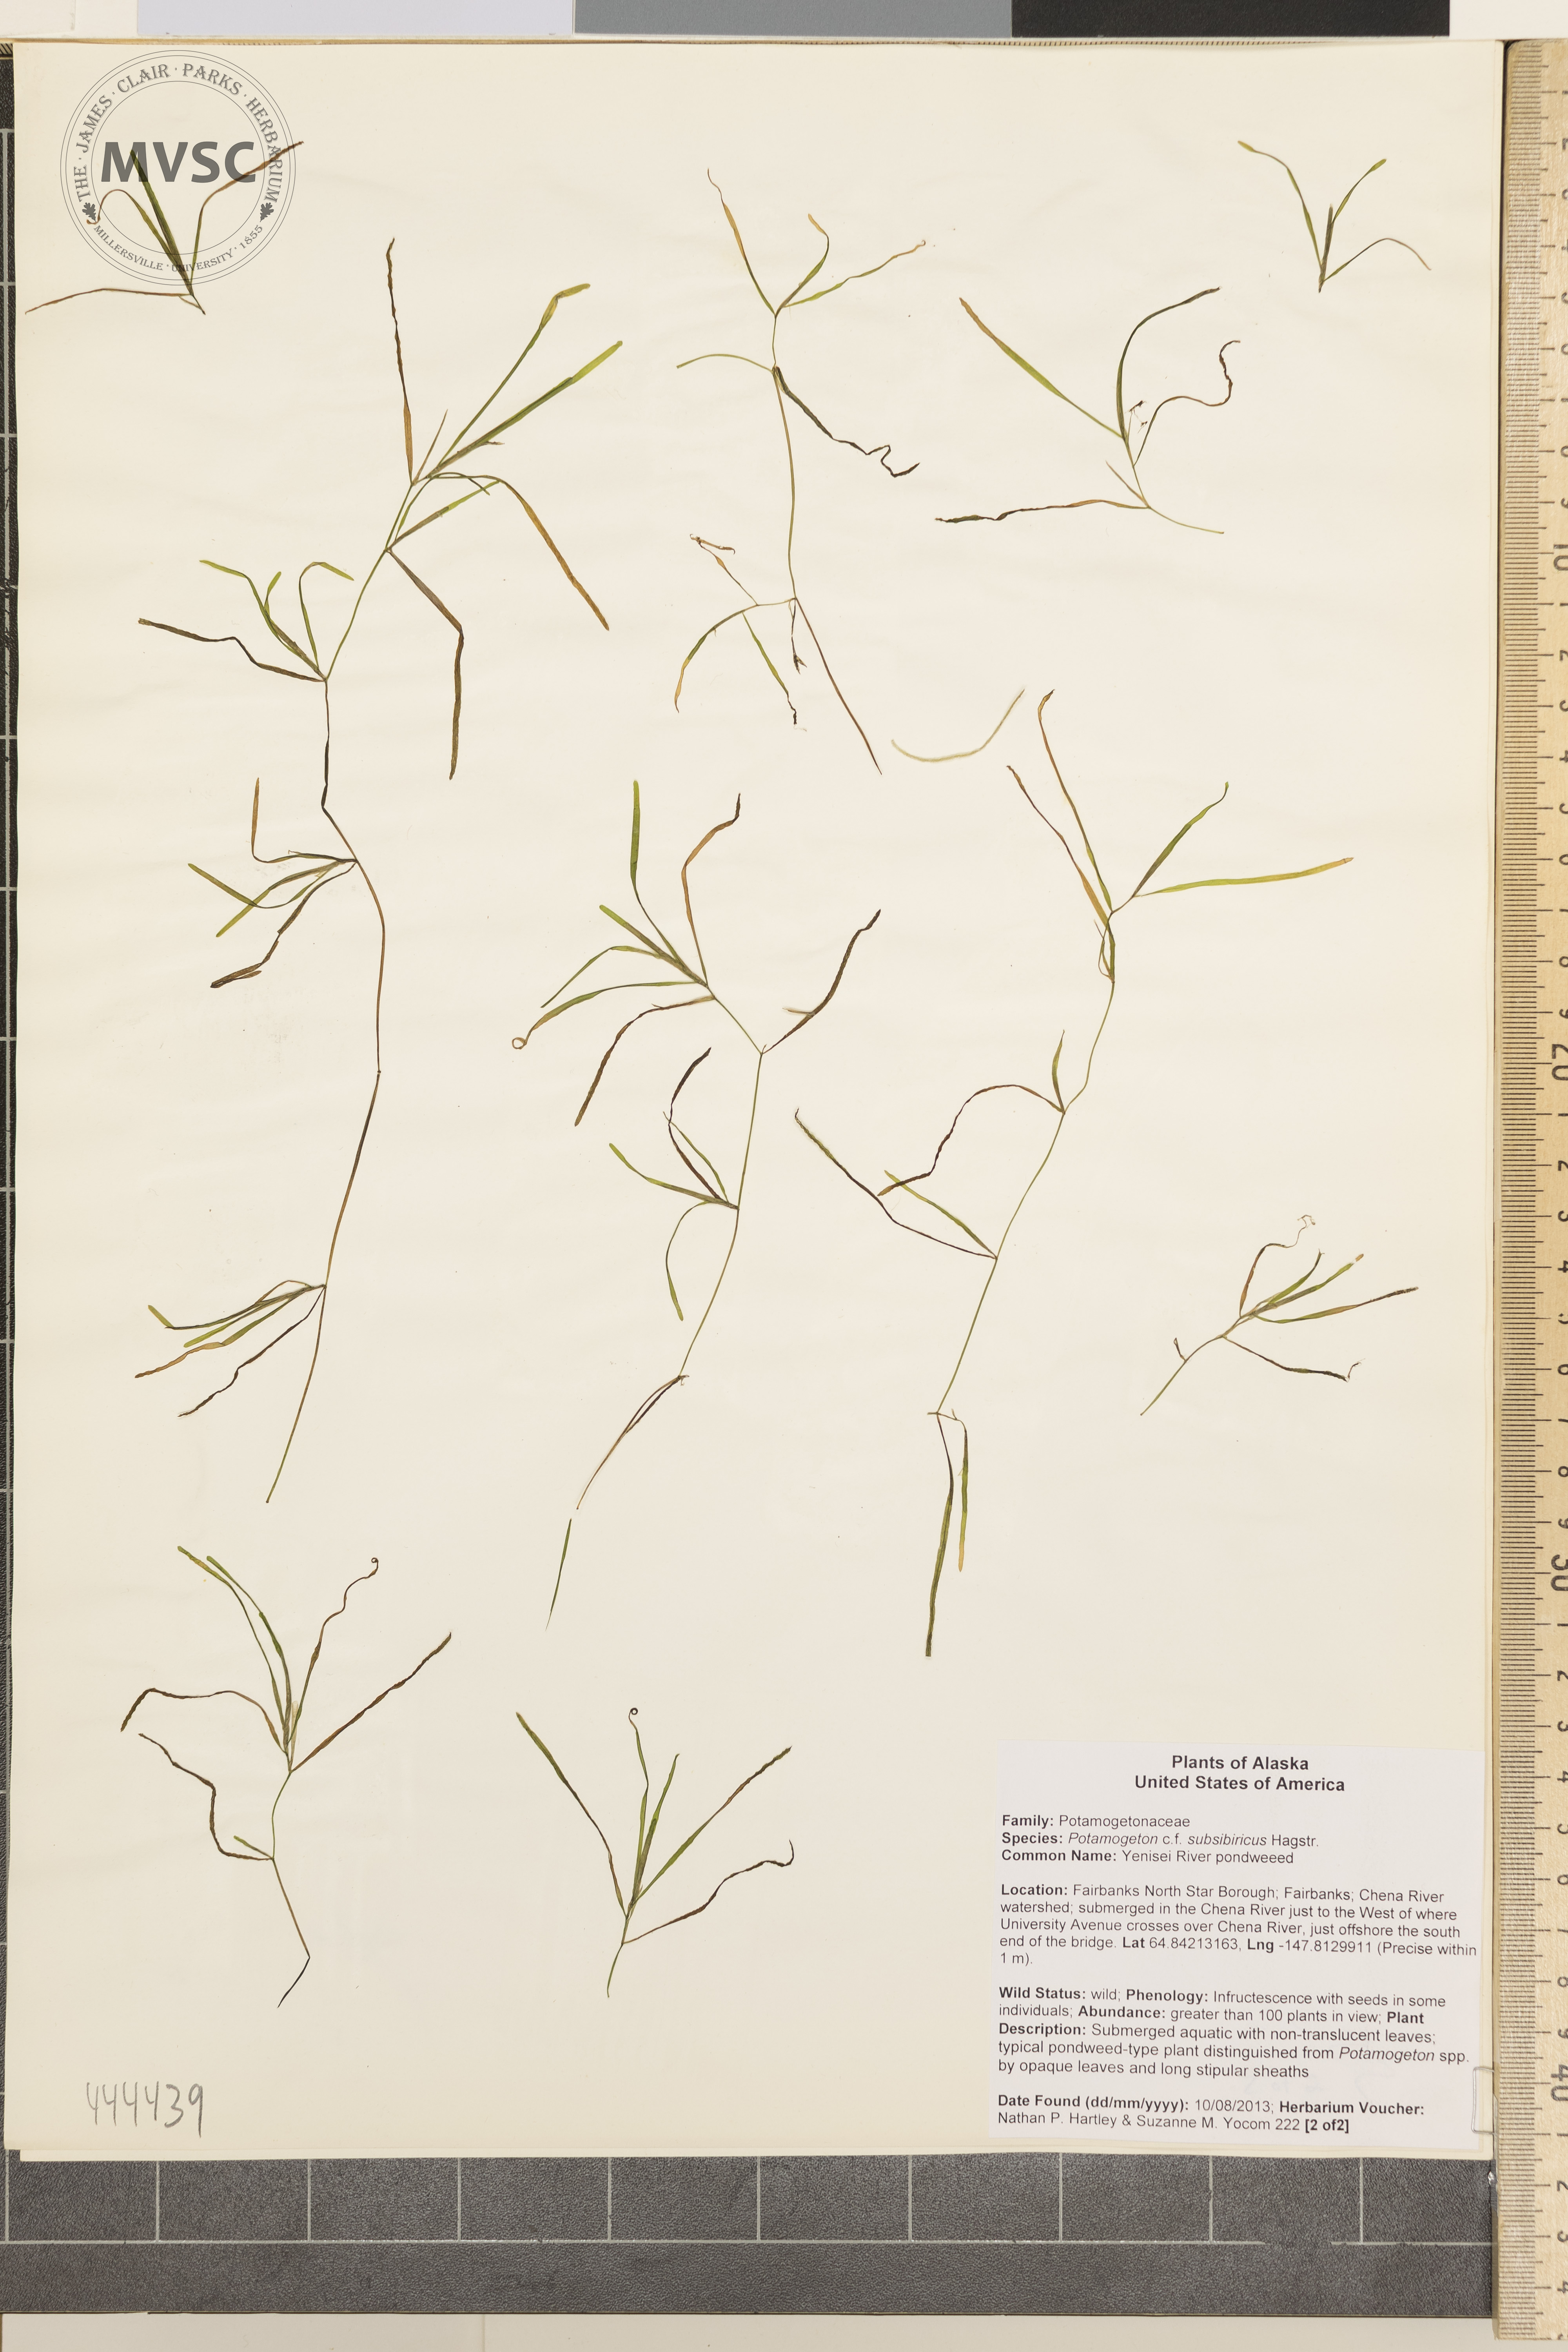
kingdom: Plantae
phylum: Tracheophyta
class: Liliopsida
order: Alismatales
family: Potamogetonaceae
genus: Potamogeton
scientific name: Potamogeton sibiricus
